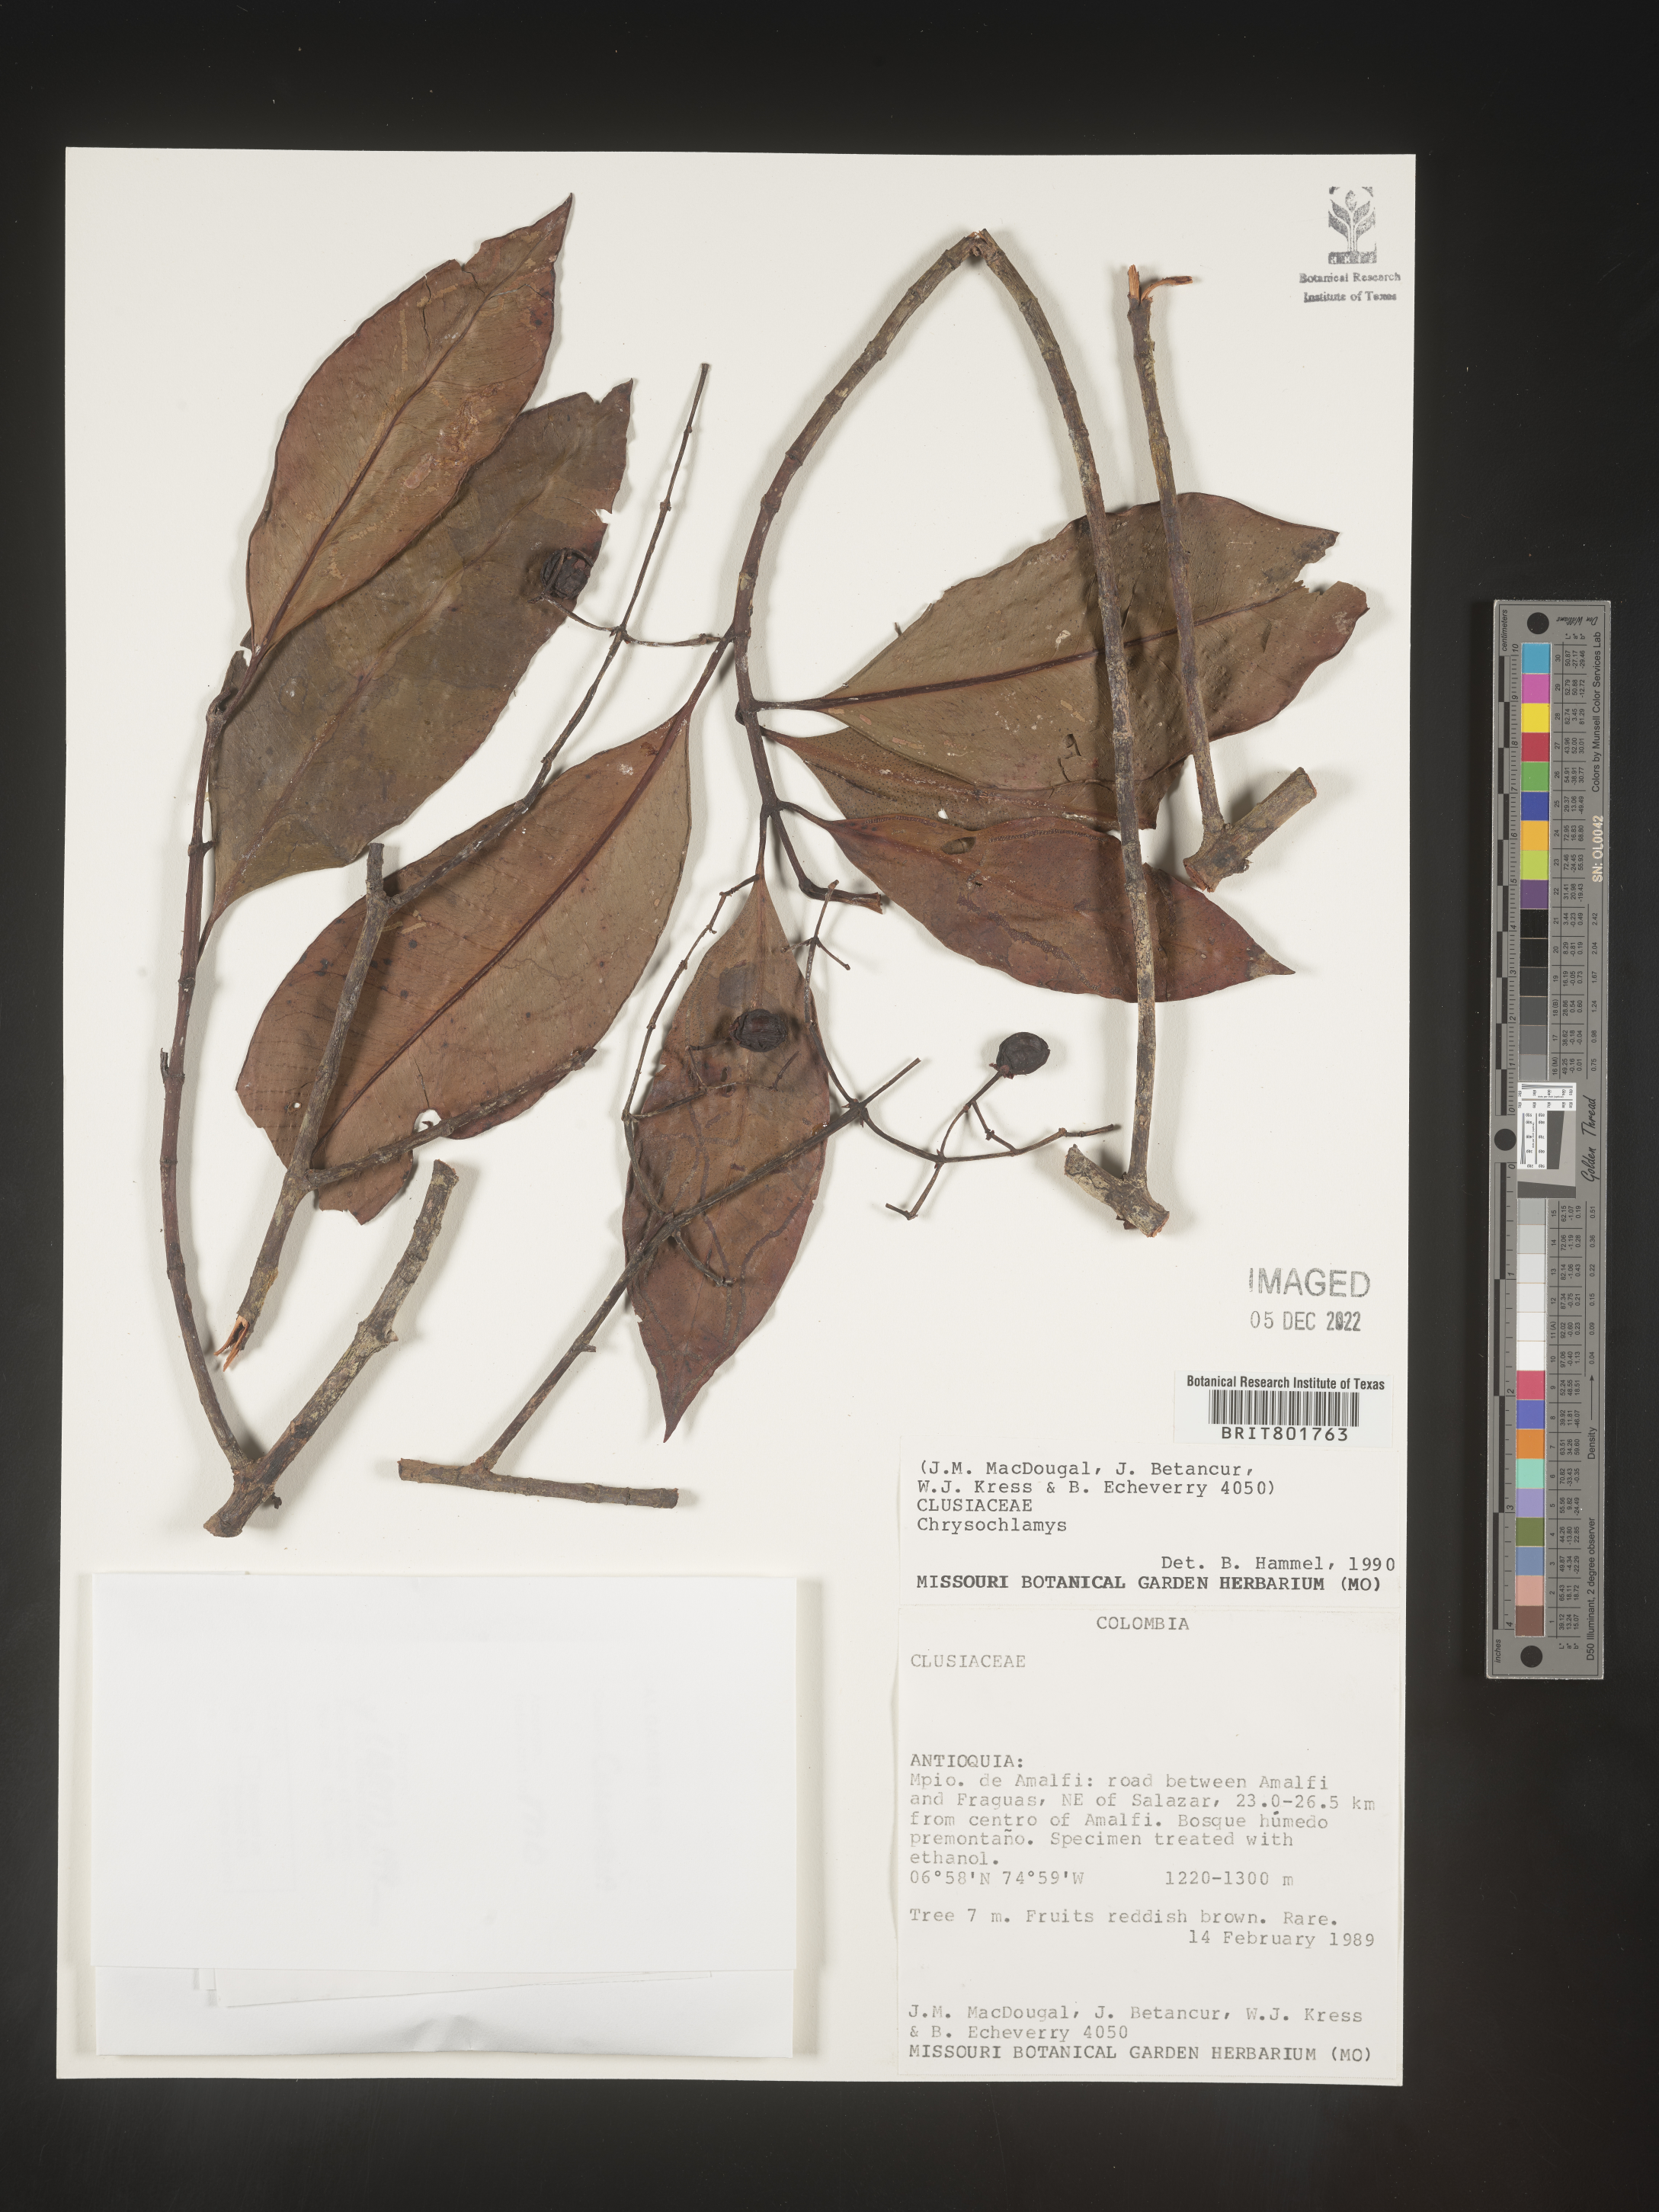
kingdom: Plantae
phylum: Tracheophyta
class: Magnoliopsida
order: Malpighiales
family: Clusiaceae
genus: Chrysochlamys
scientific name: Chrysochlamys
